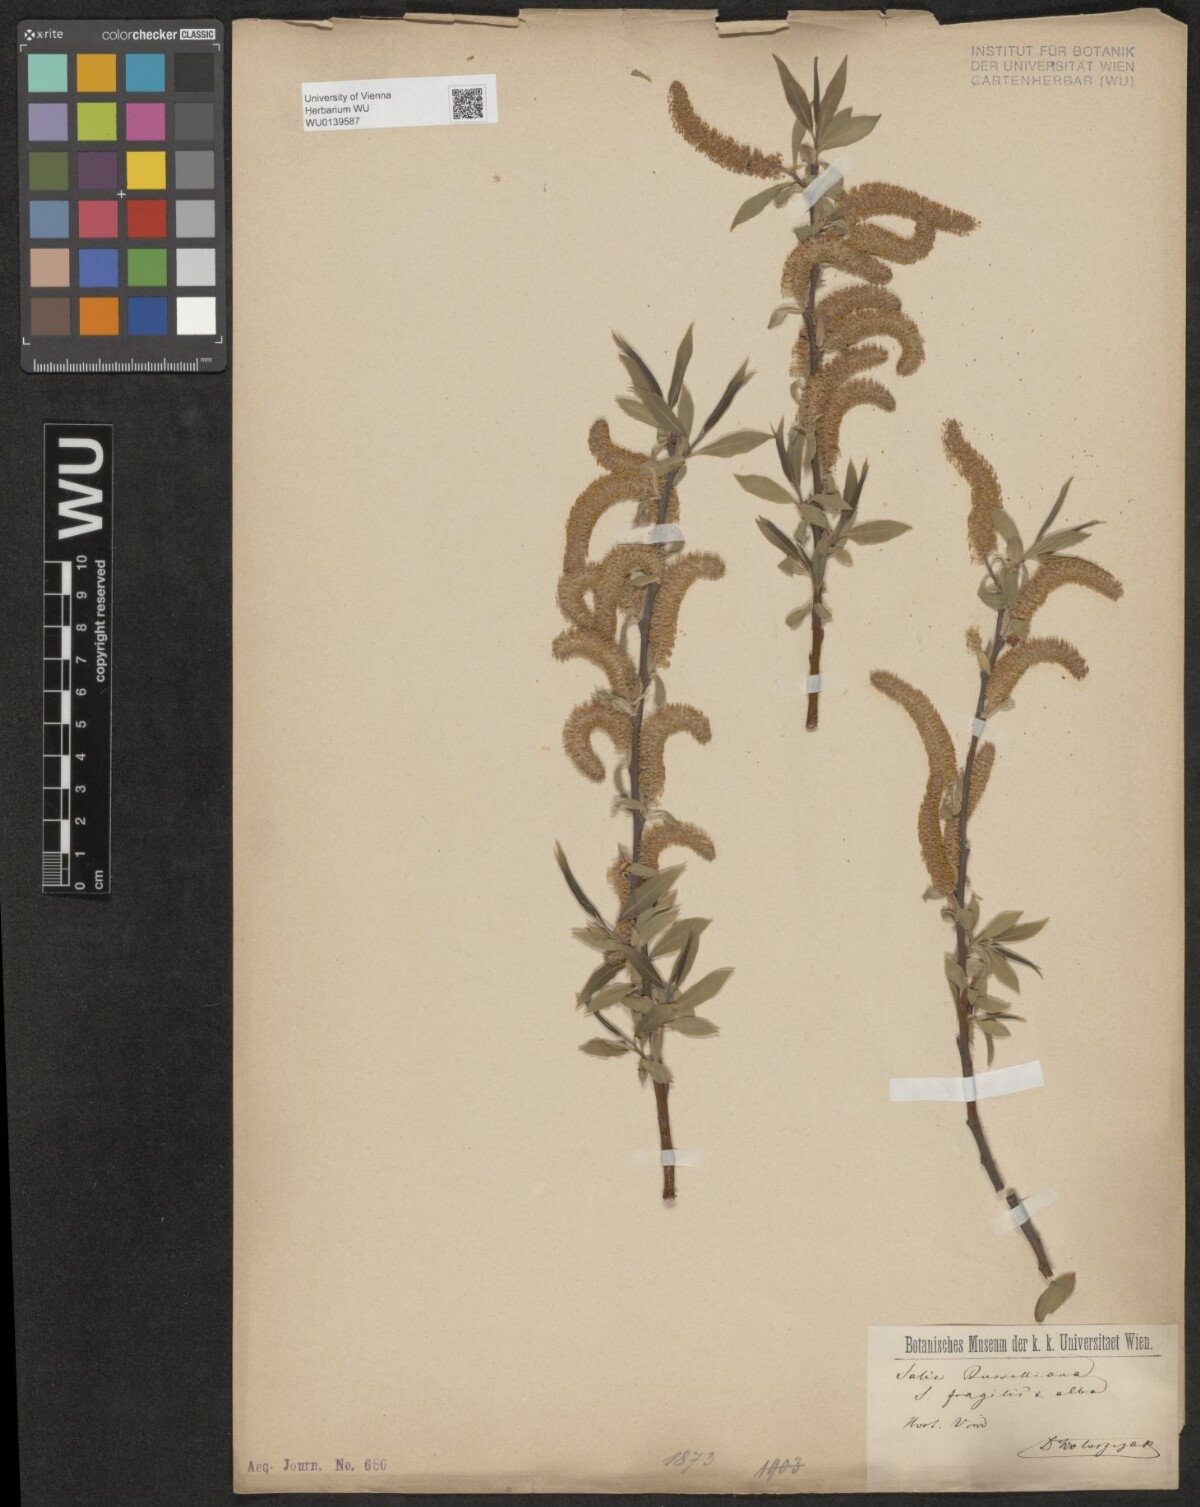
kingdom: Plantae
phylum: Tracheophyta
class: Magnoliopsida
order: Malpighiales
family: Salicaceae
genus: Salix
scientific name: Salix rubens
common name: Hybrid crack willow
